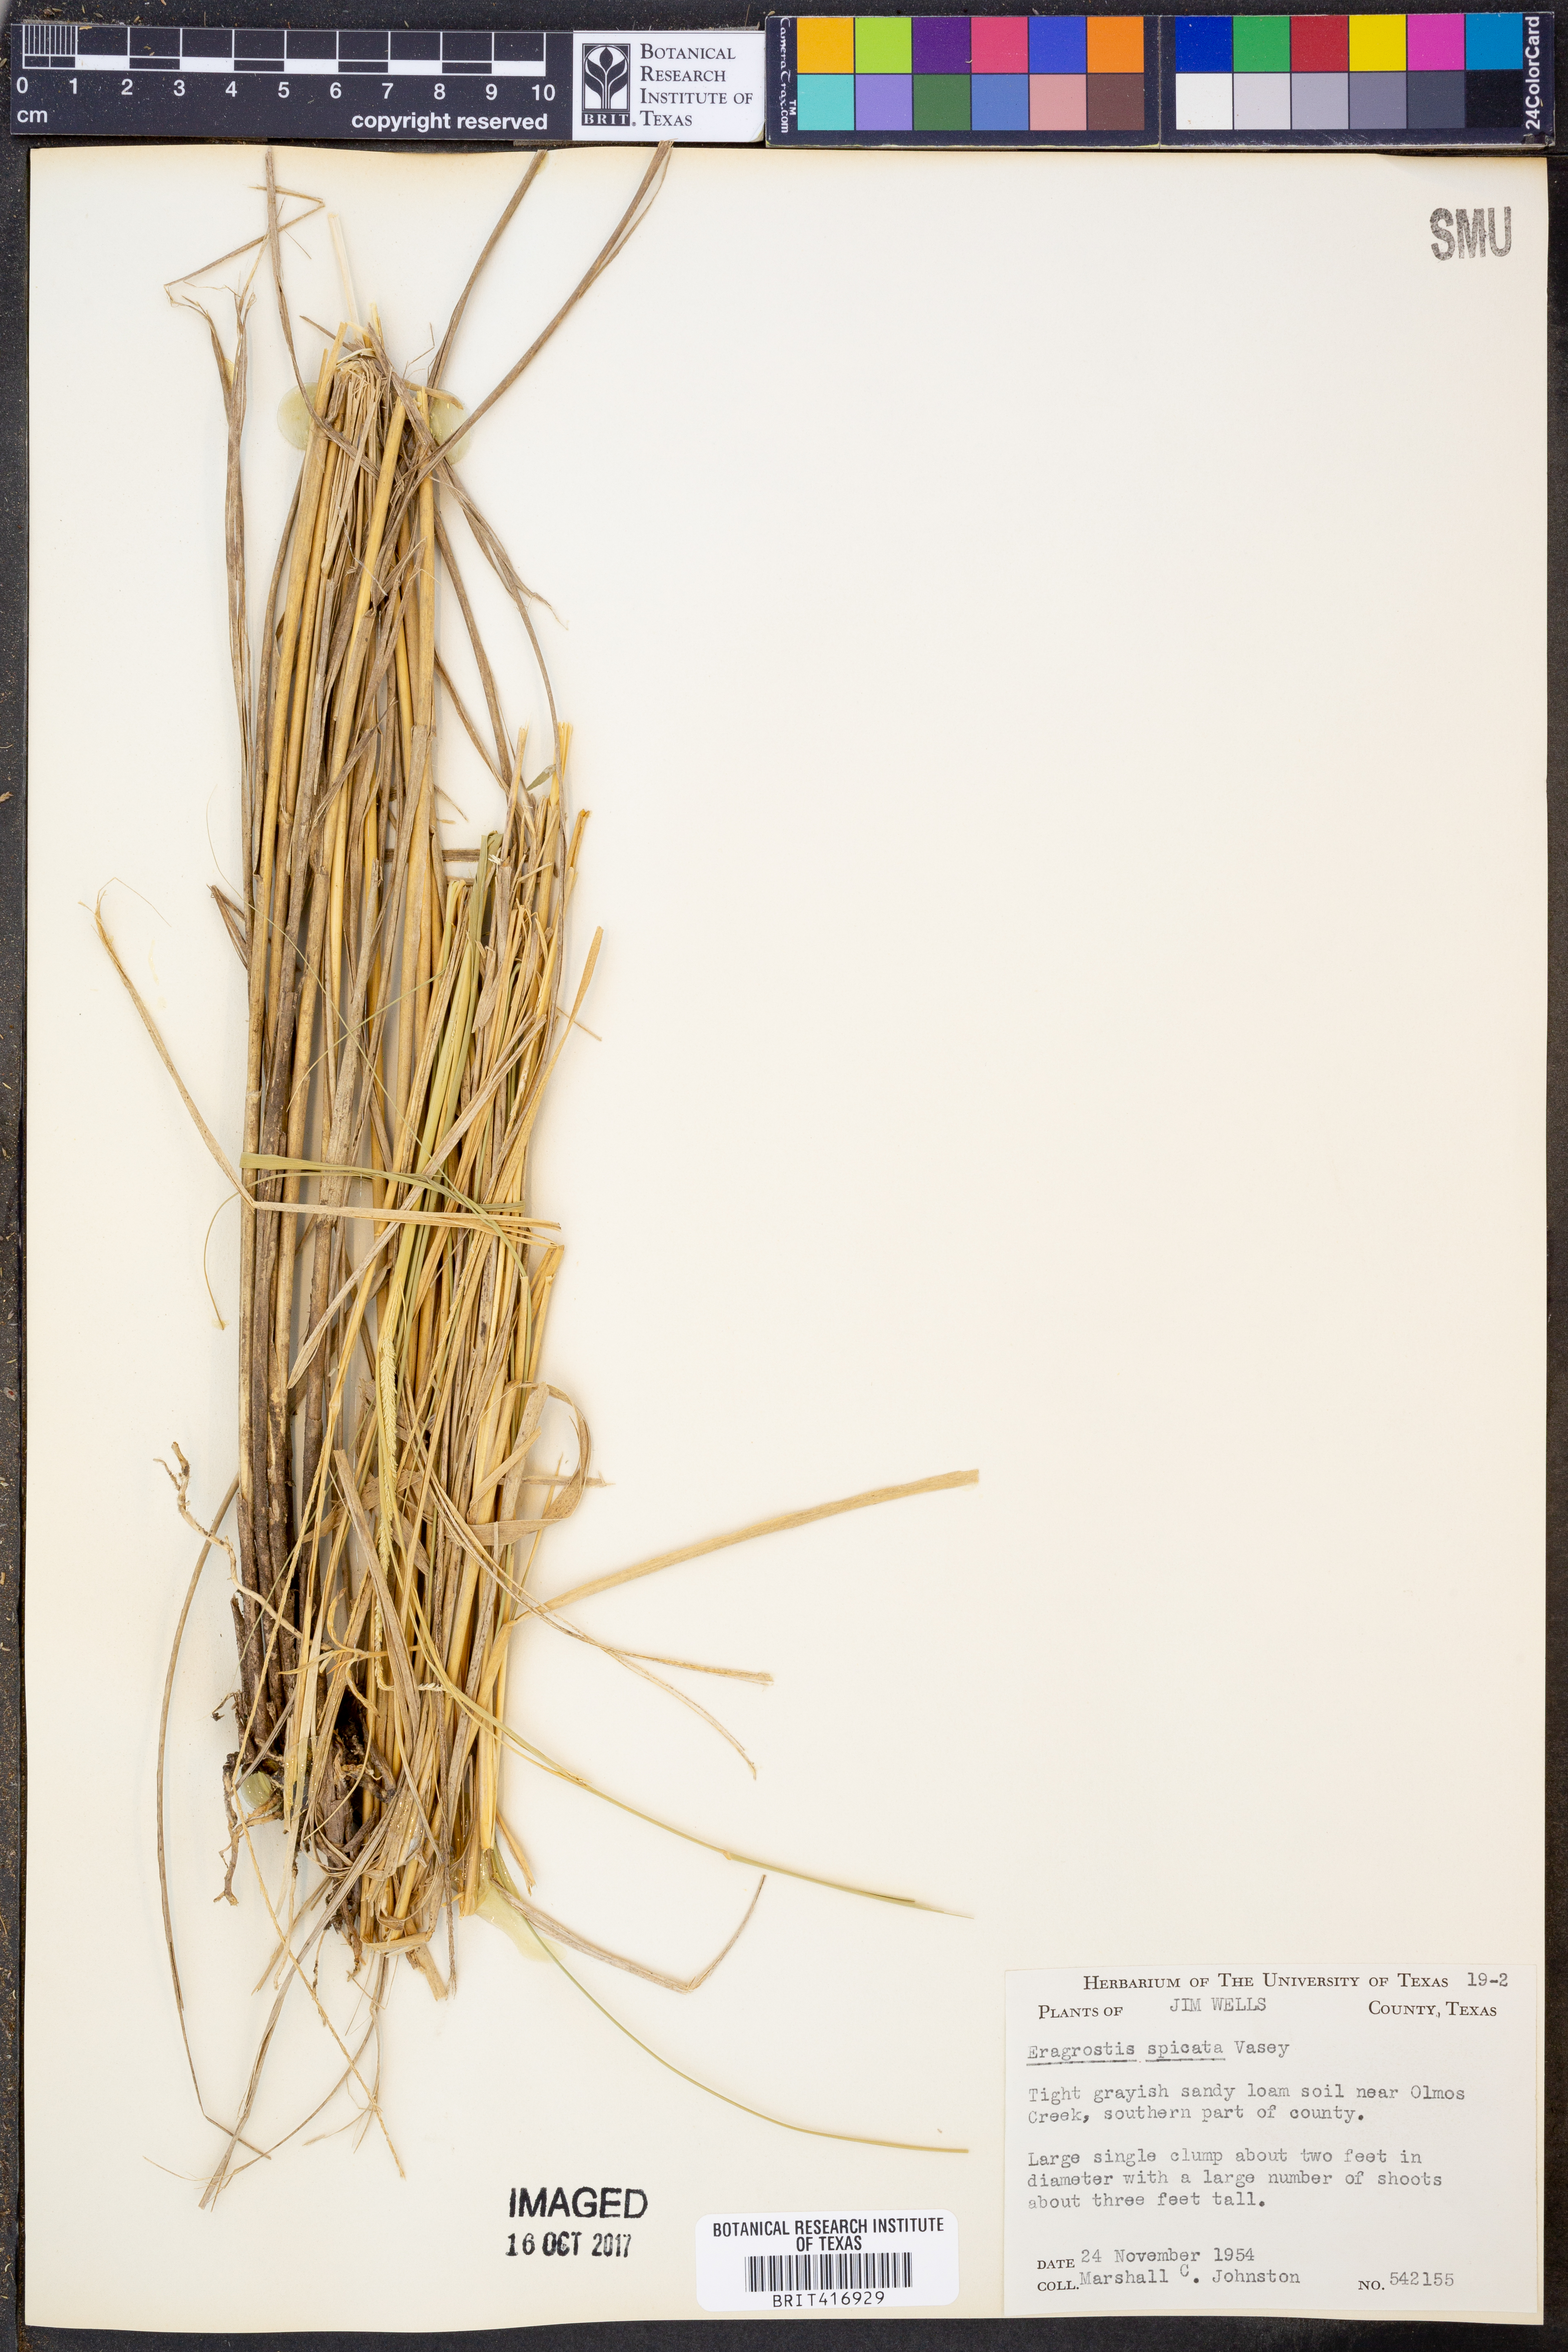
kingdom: Plantae
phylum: Tracheophyta
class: Liliopsida
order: Poales
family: Poaceae
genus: Eragrostis
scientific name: Eragrostis spicata
